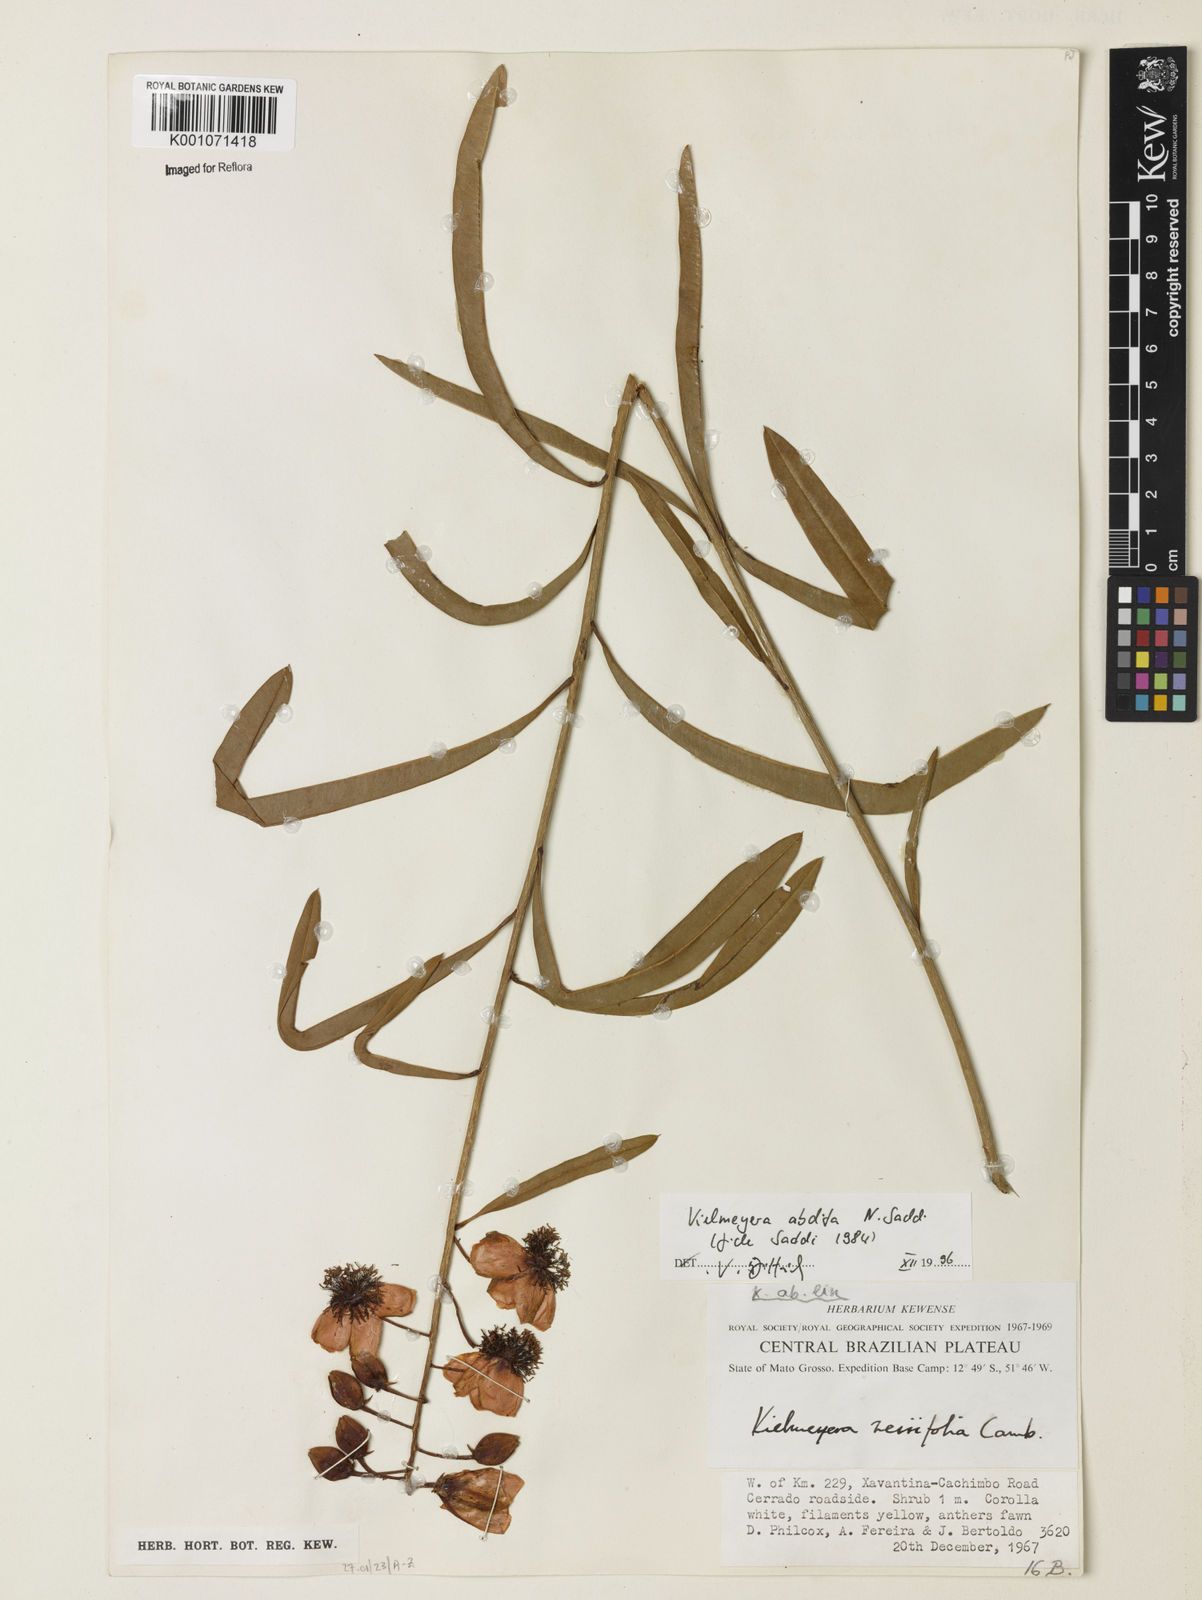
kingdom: Plantae
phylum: Tracheophyta
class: Magnoliopsida
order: Malpighiales
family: Calophyllaceae
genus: Kielmeyera
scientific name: Kielmeyera abdita
